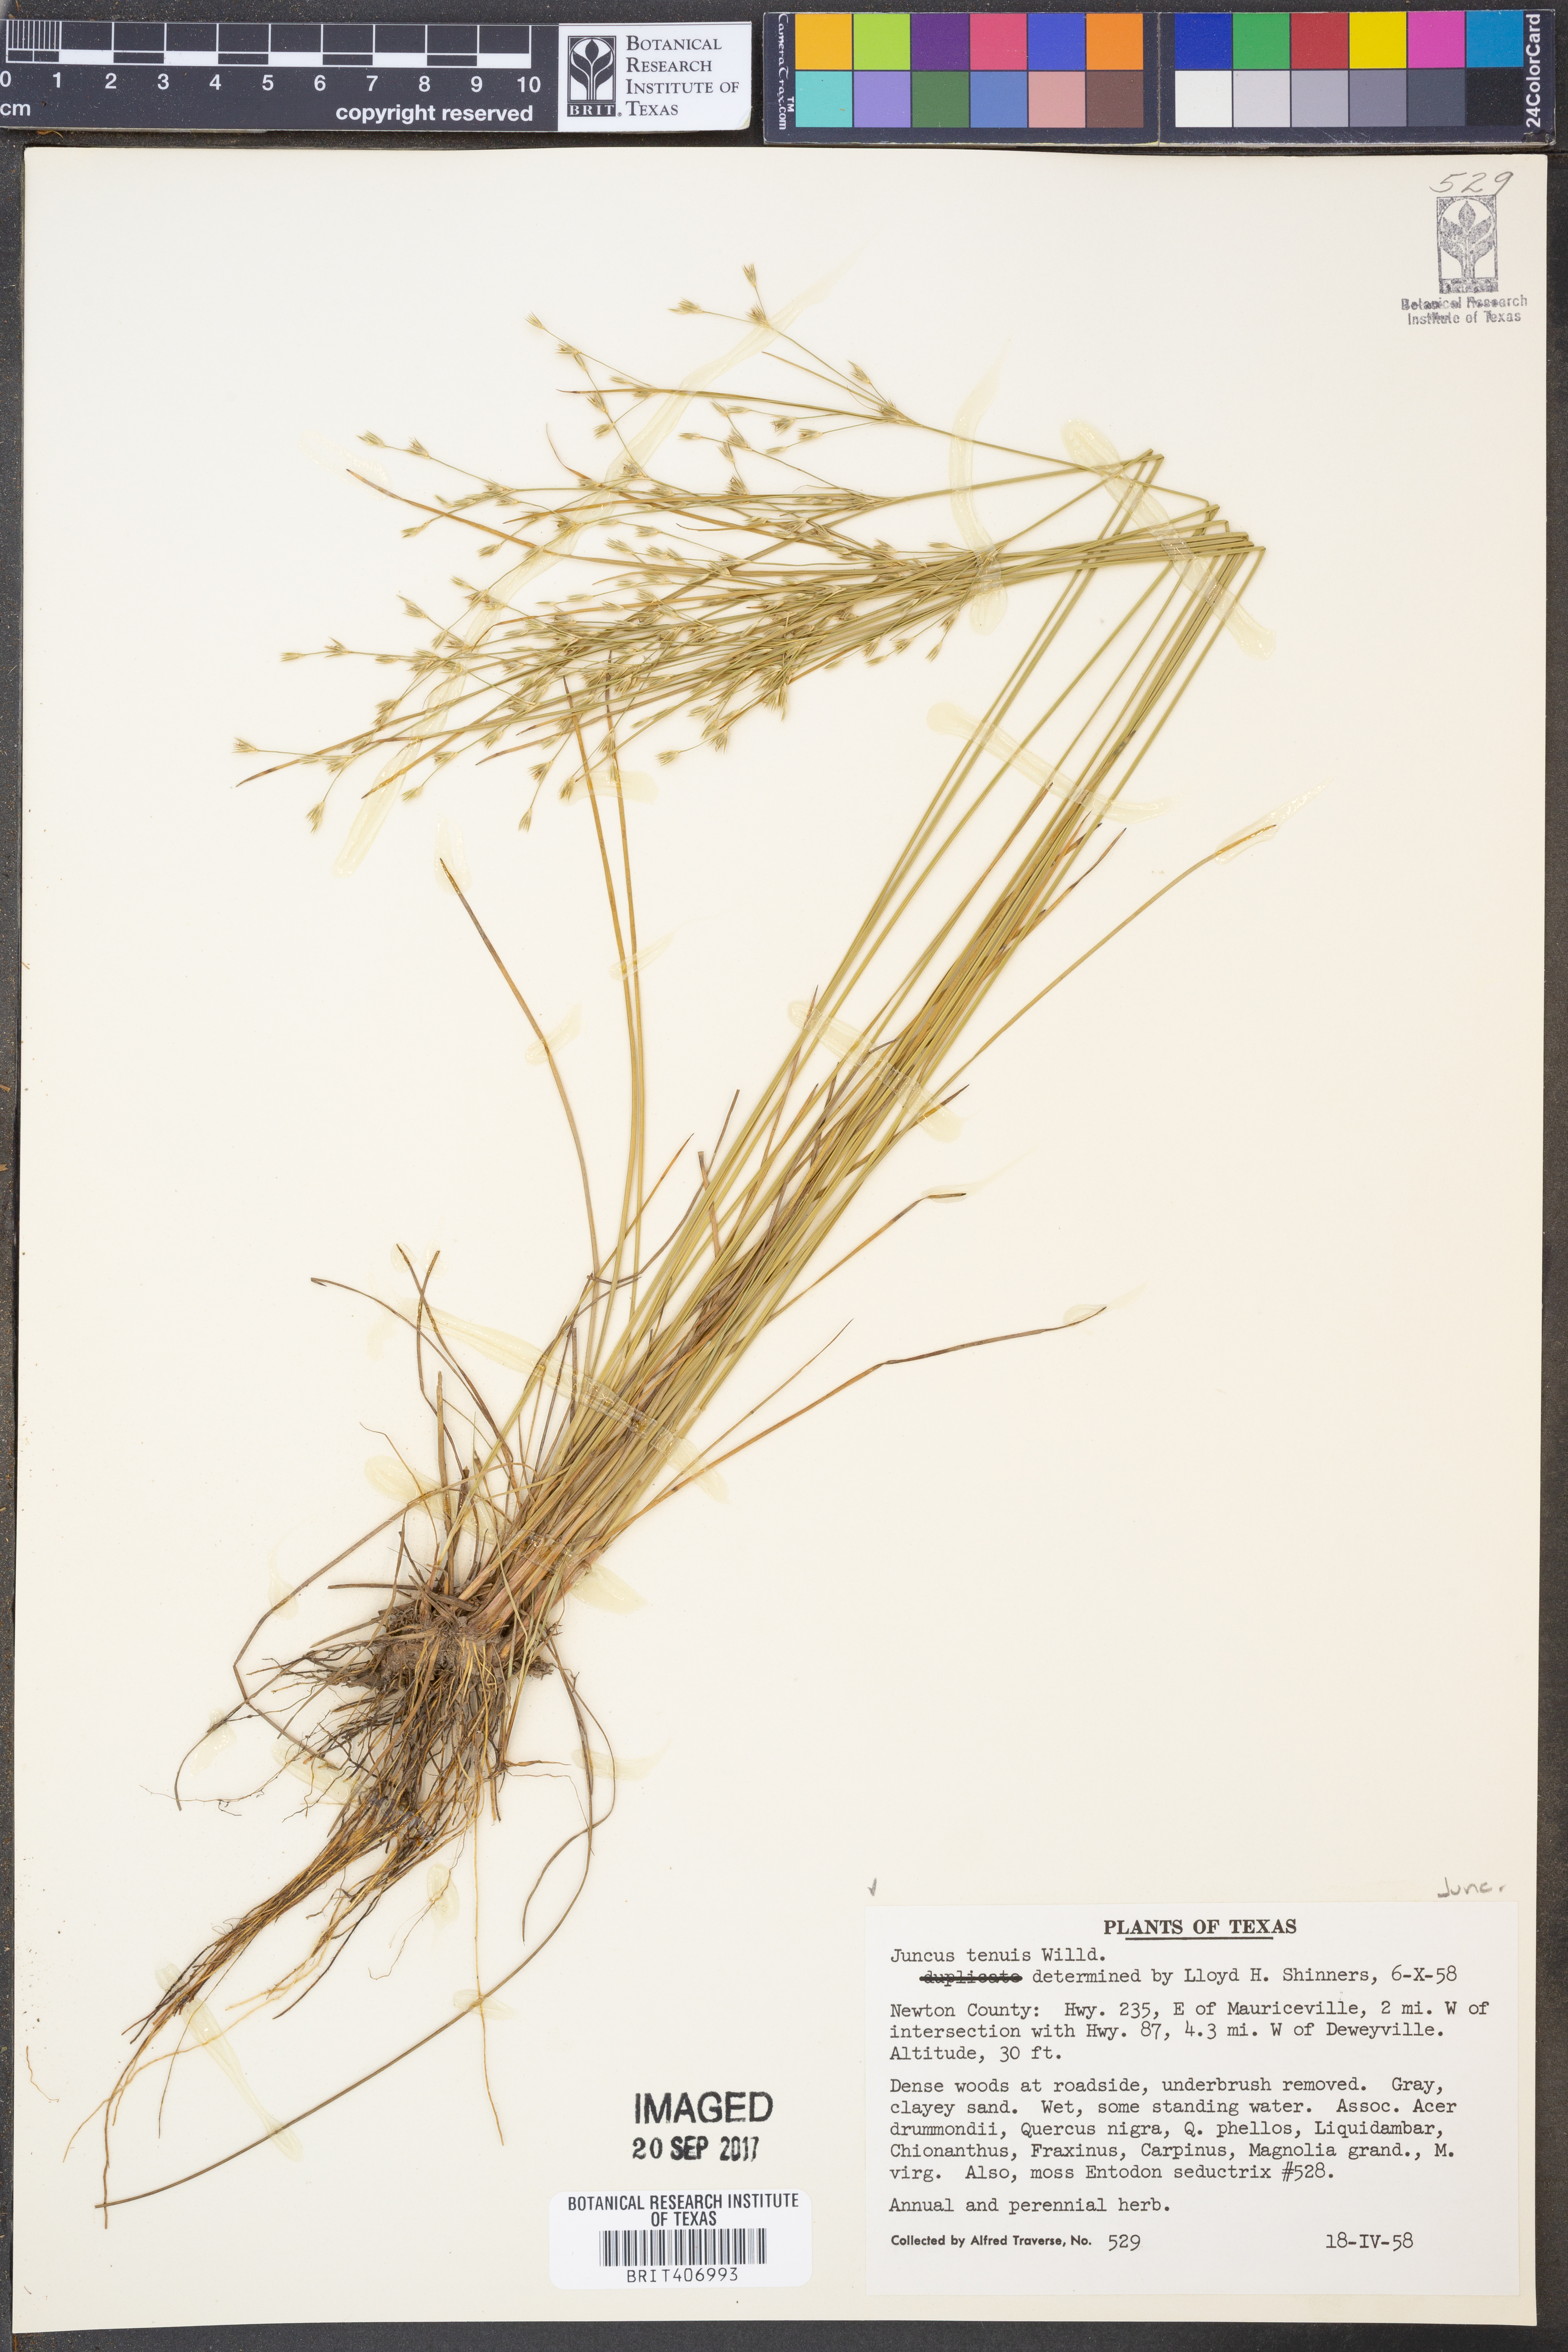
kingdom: Plantae
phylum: Tracheophyta
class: Liliopsida
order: Poales
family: Juncaceae
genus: Juncus
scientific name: Juncus tenuis
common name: Slender rush
